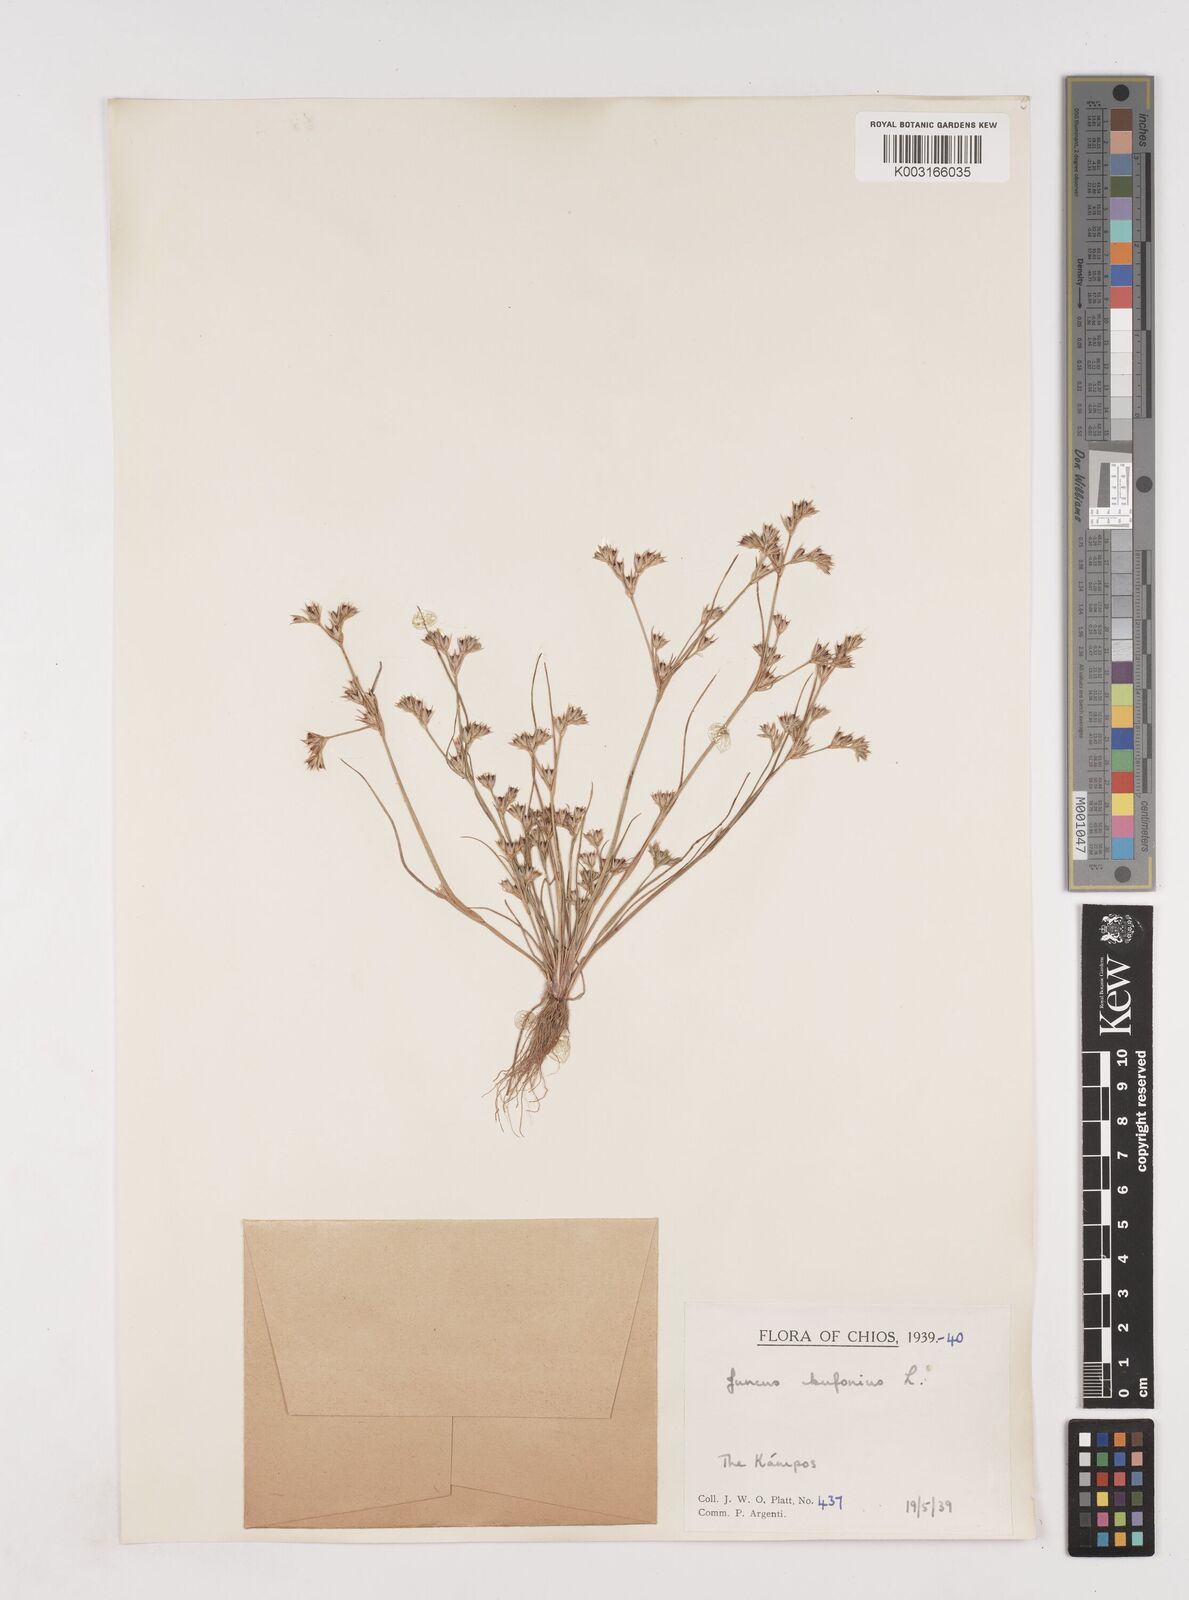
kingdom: Plantae
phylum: Tracheophyta
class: Liliopsida
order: Poales
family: Juncaceae
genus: Juncus
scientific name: Juncus bufonius
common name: Toad rush
